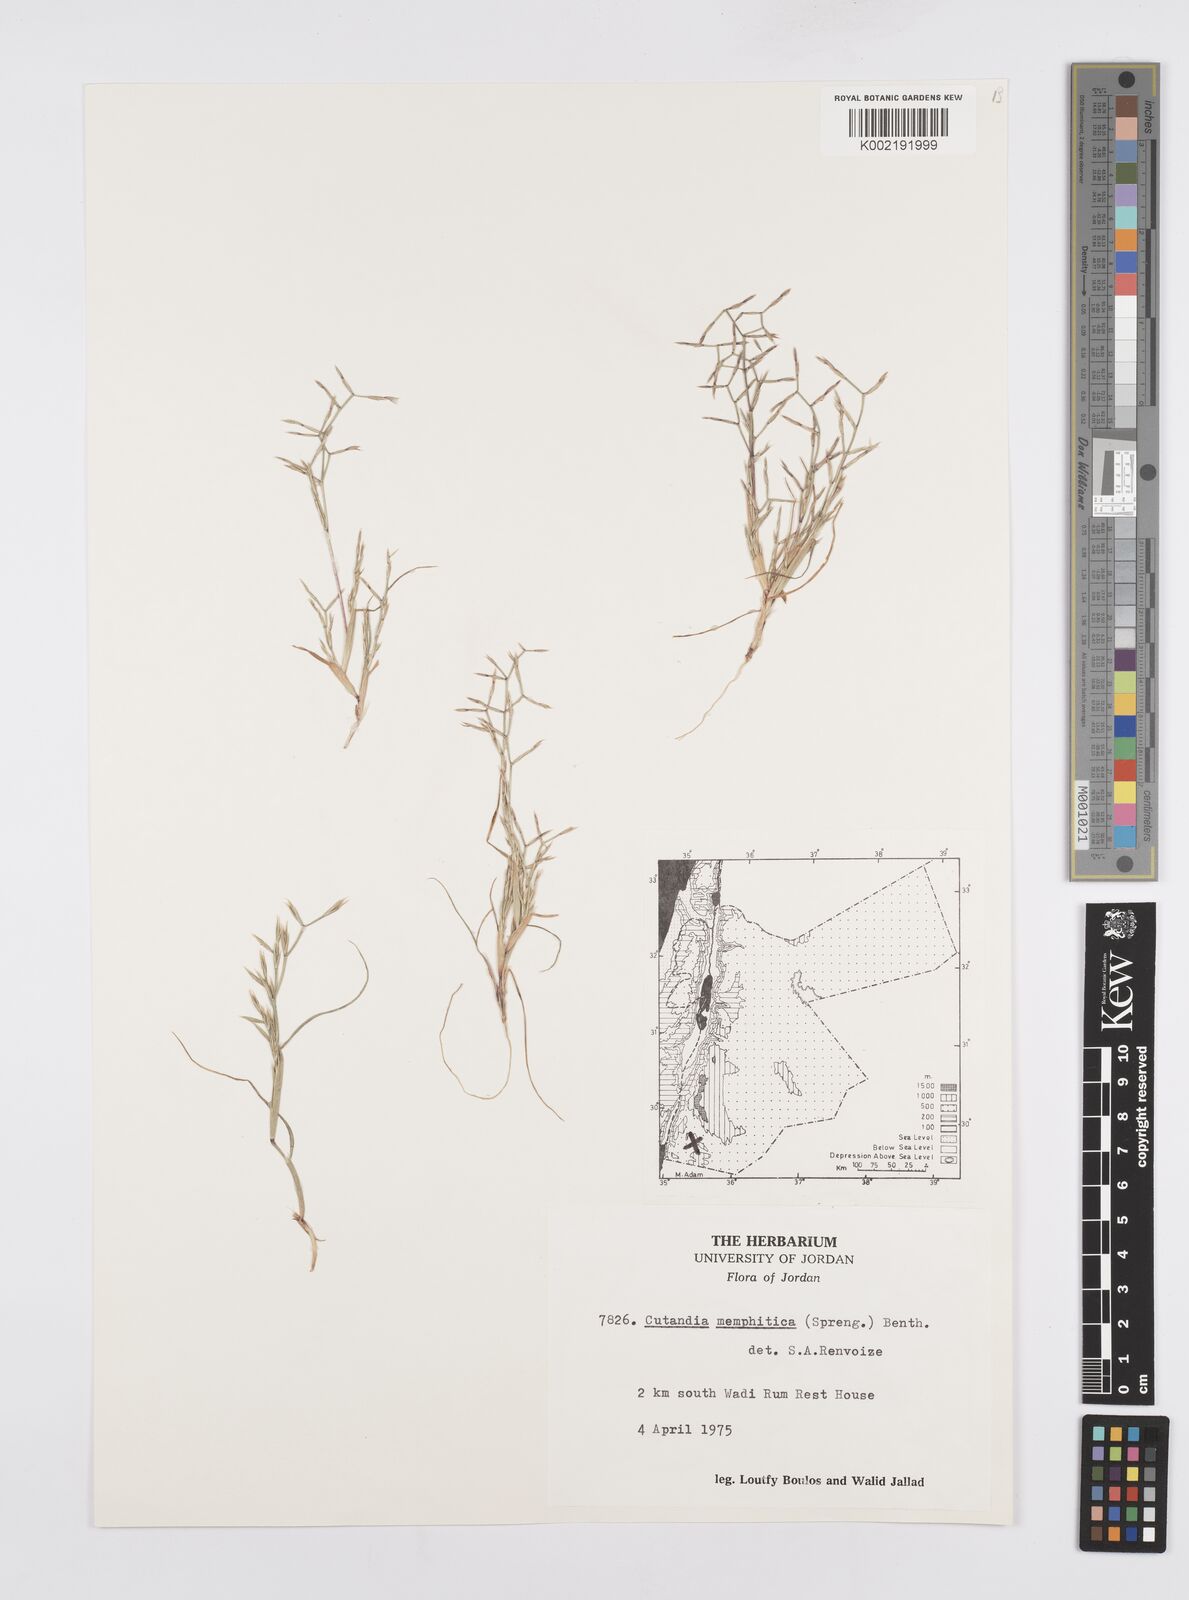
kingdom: Plantae
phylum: Tracheophyta
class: Liliopsida
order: Poales
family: Poaceae
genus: Cutandia
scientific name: Cutandia memphitica
